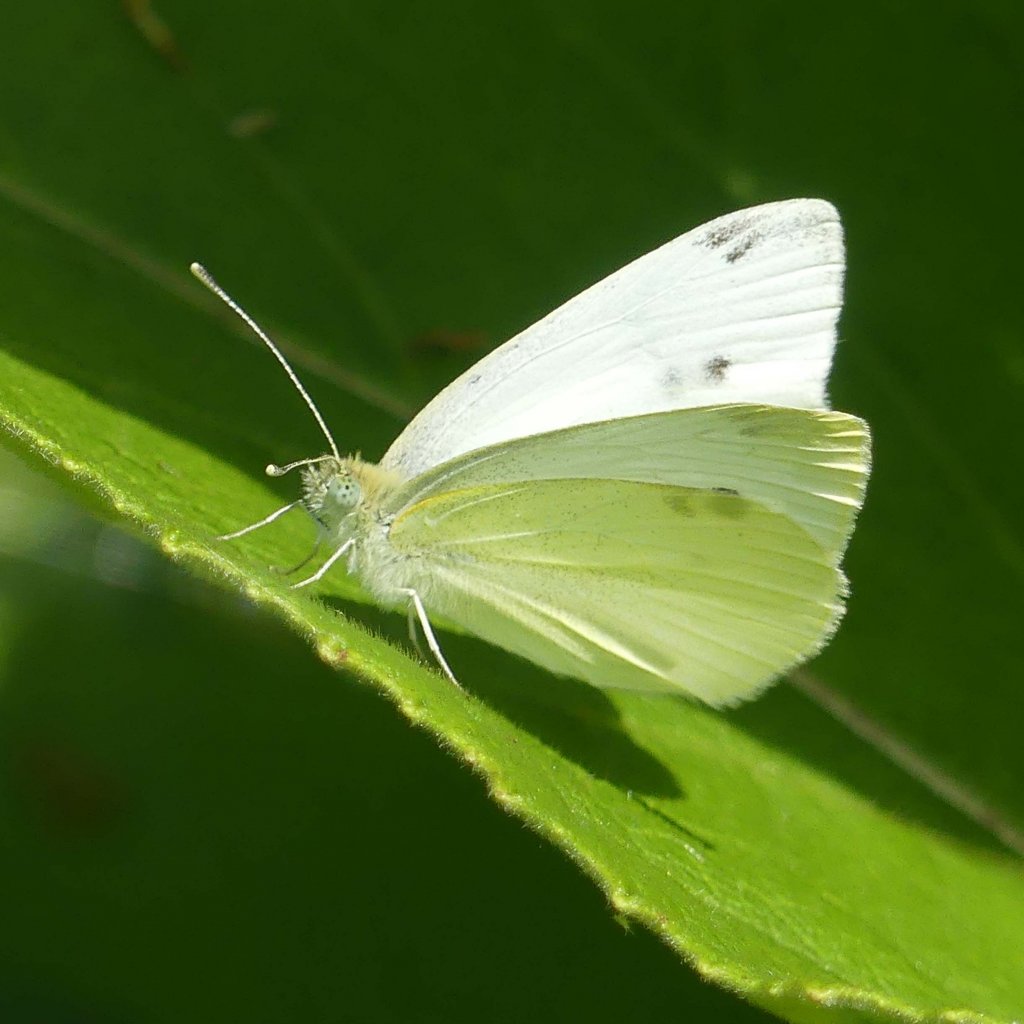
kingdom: Animalia
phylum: Arthropoda
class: Insecta
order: Lepidoptera
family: Pieridae
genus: Pieris
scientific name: Pieris rapae
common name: Cabbage White
